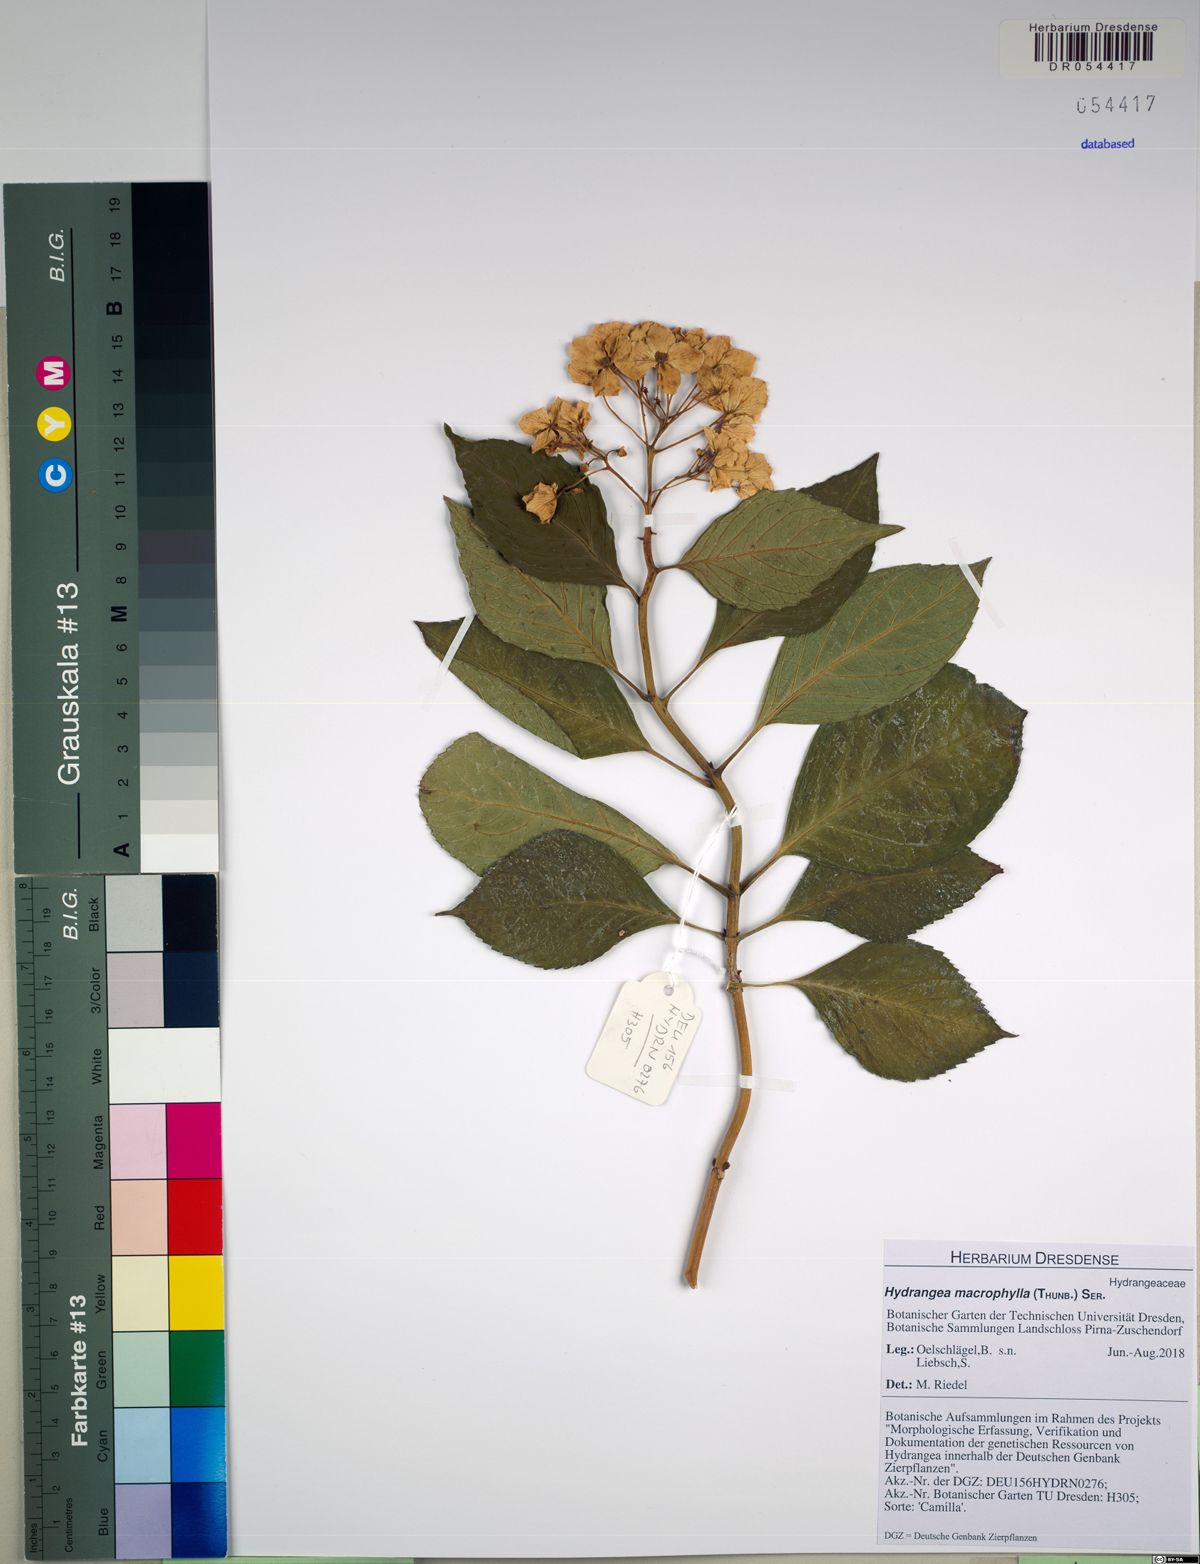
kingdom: Plantae
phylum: Tracheophyta
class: Magnoliopsida
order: Cornales
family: Hydrangeaceae
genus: Hydrangea
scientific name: Hydrangea macrophylla
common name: Hydrangea
